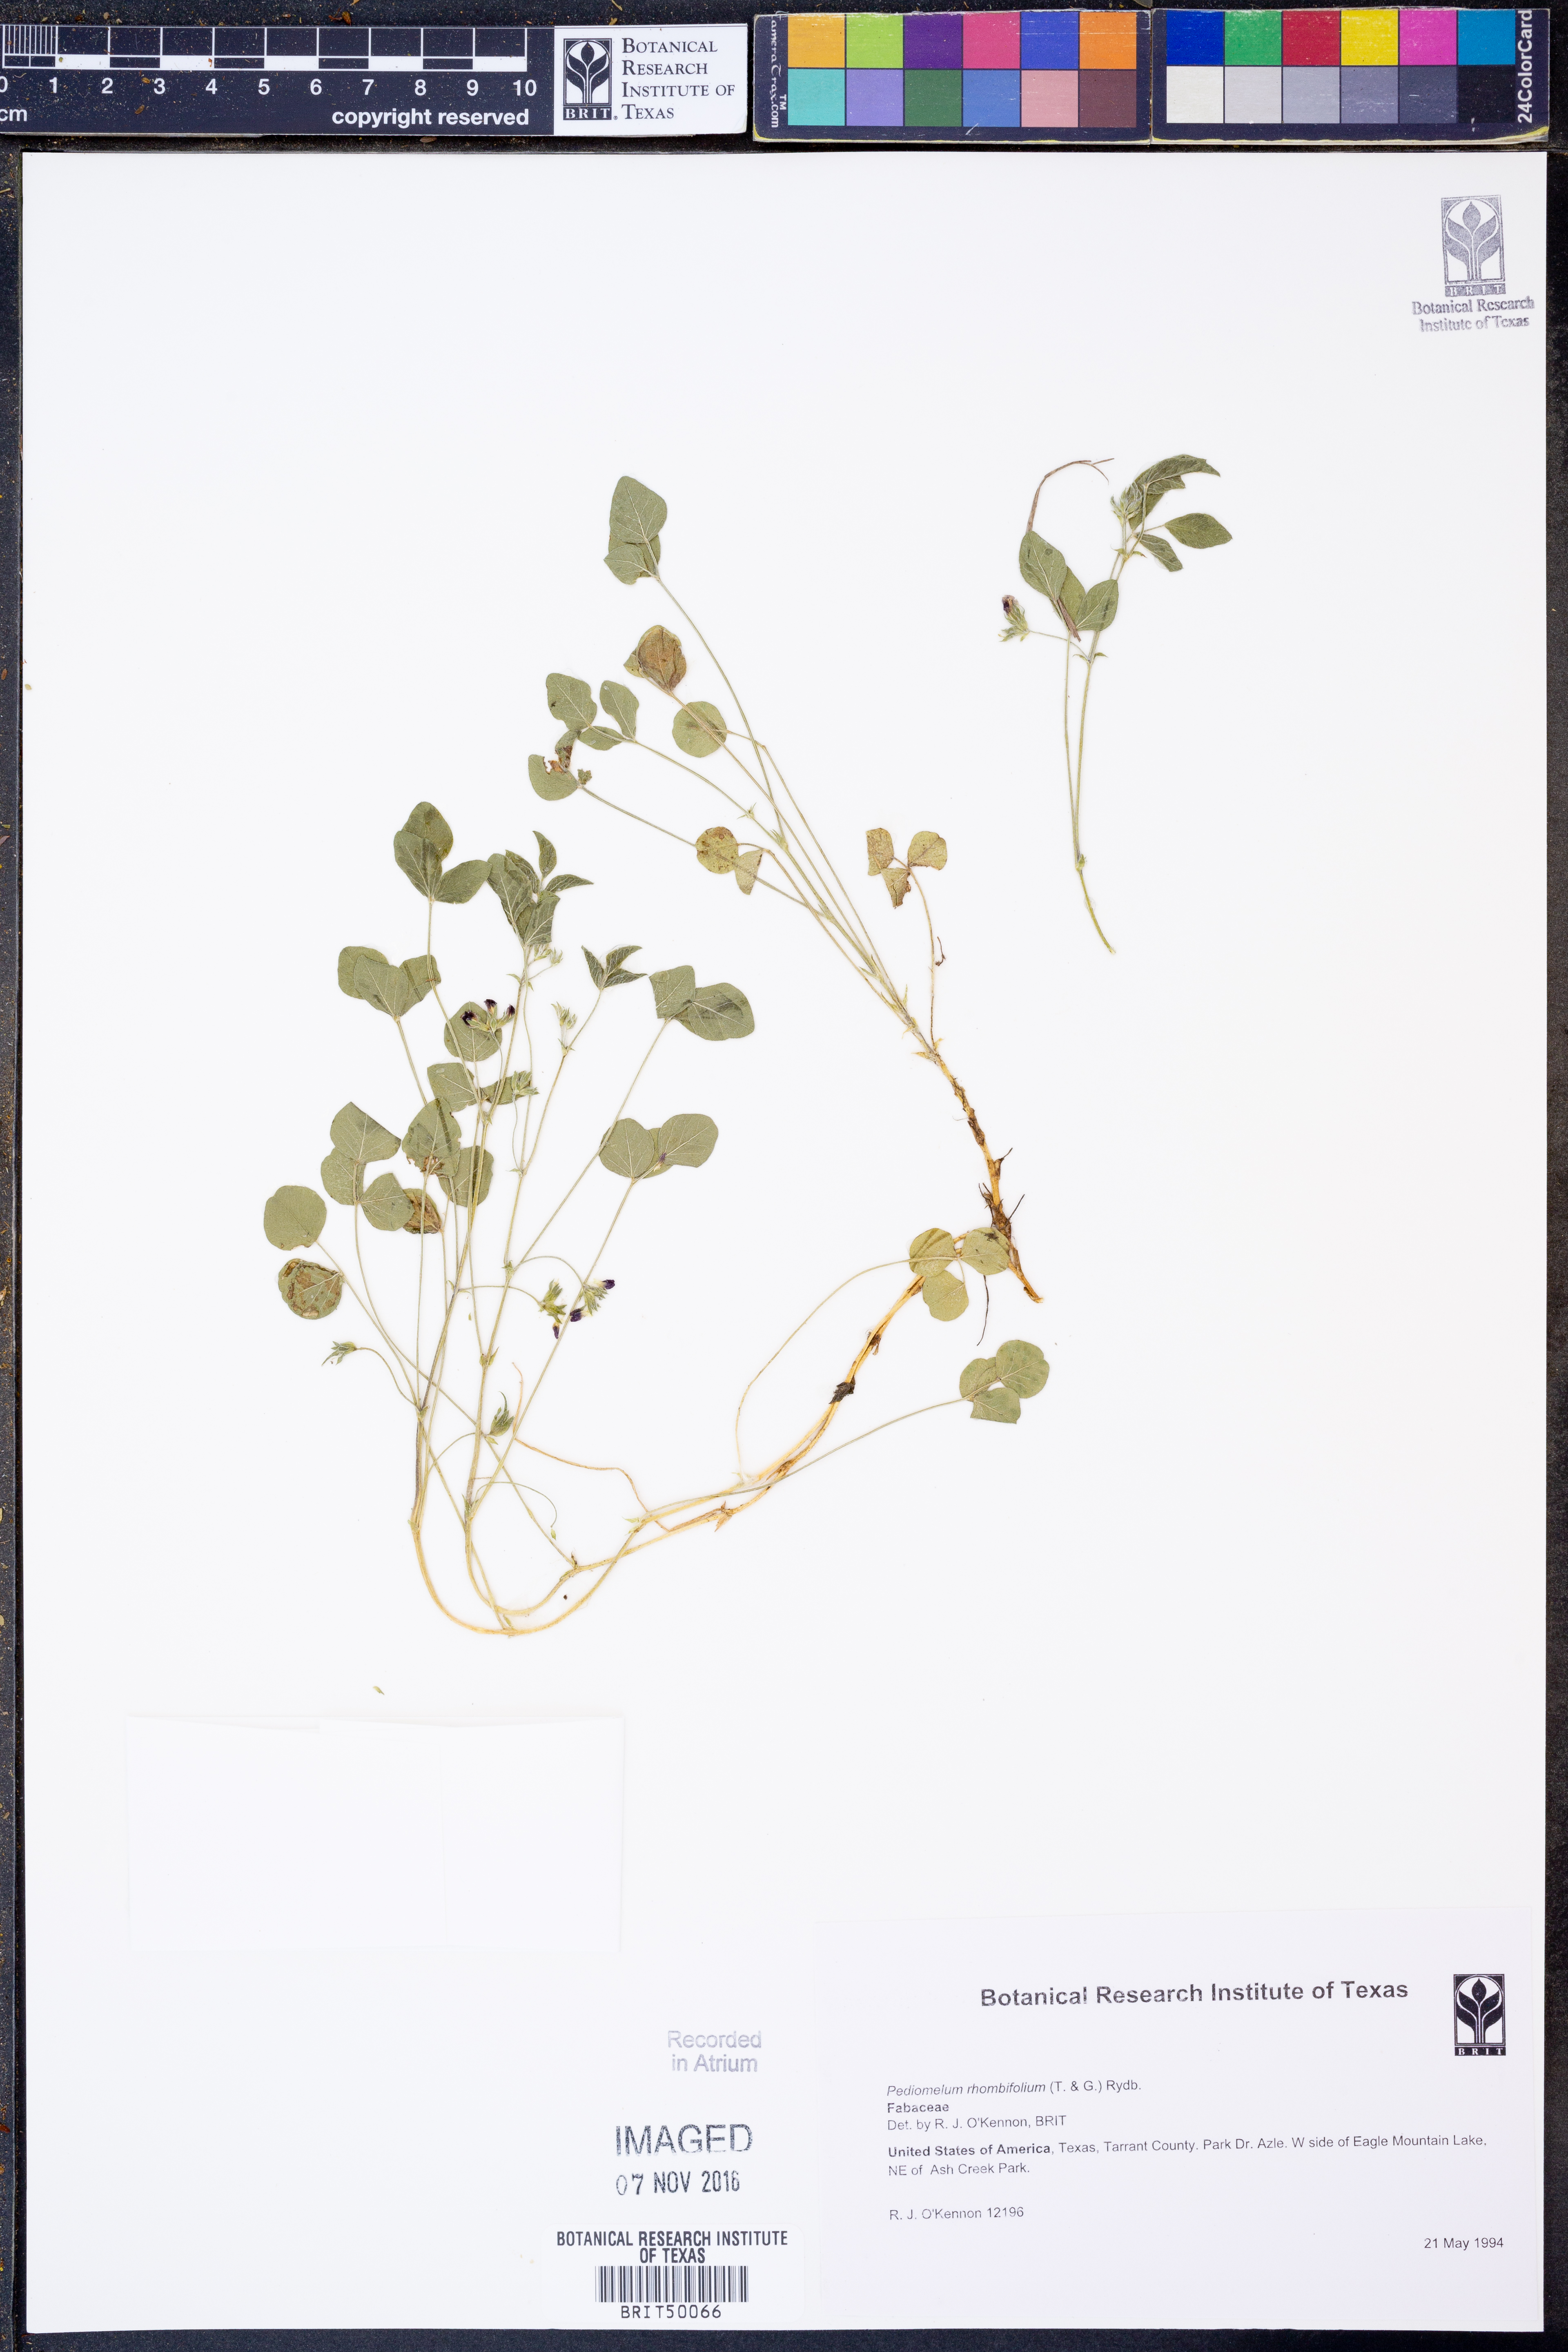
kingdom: Plantae
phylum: Tracheophyta
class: Magnoliopsida
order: Fabales
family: Fabaceae
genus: Pediomelum
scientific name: Pediomelum rhombifolium
